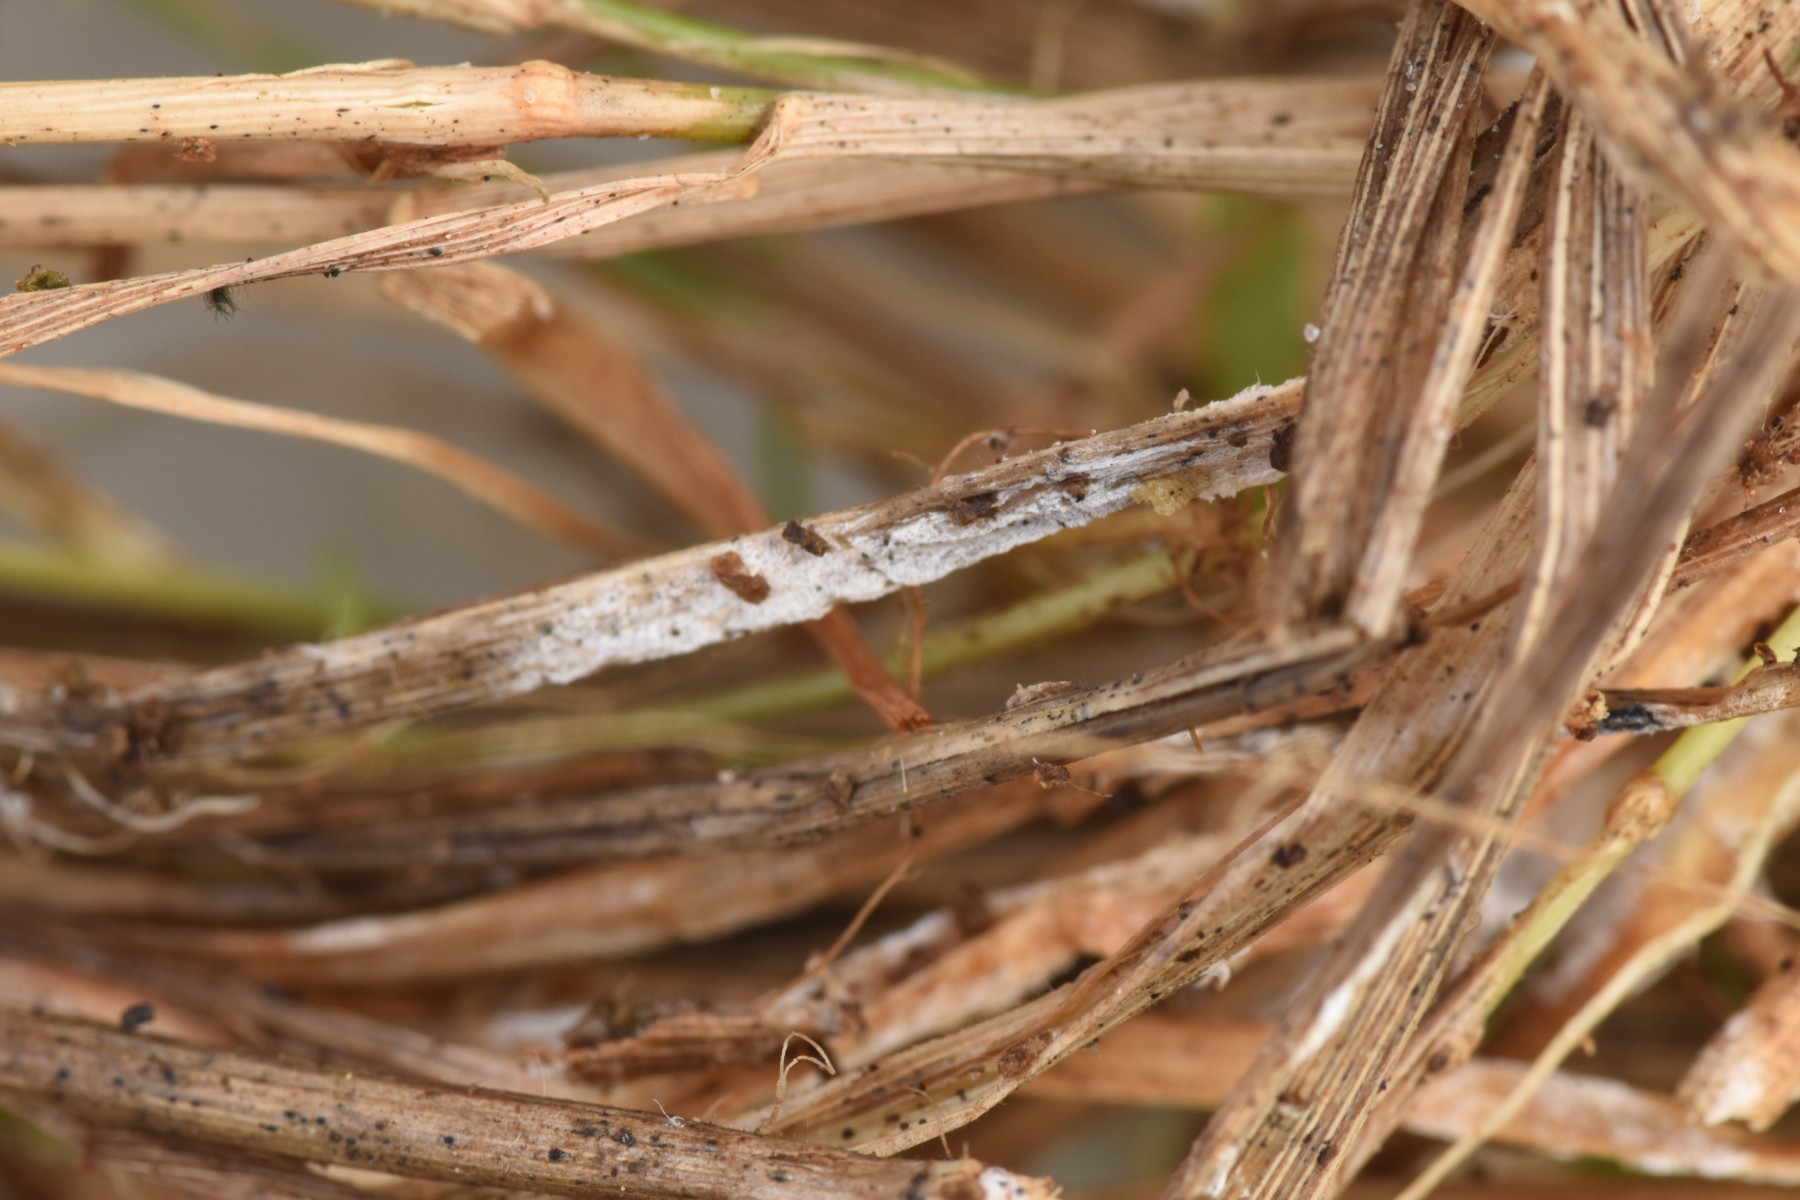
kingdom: Fungi
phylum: Basidiomycota
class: Agaricomycetes
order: Trechisporales
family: Sistotremataceae
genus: Trechispora
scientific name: Trechispora hymenocystis
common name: poret vathinde
